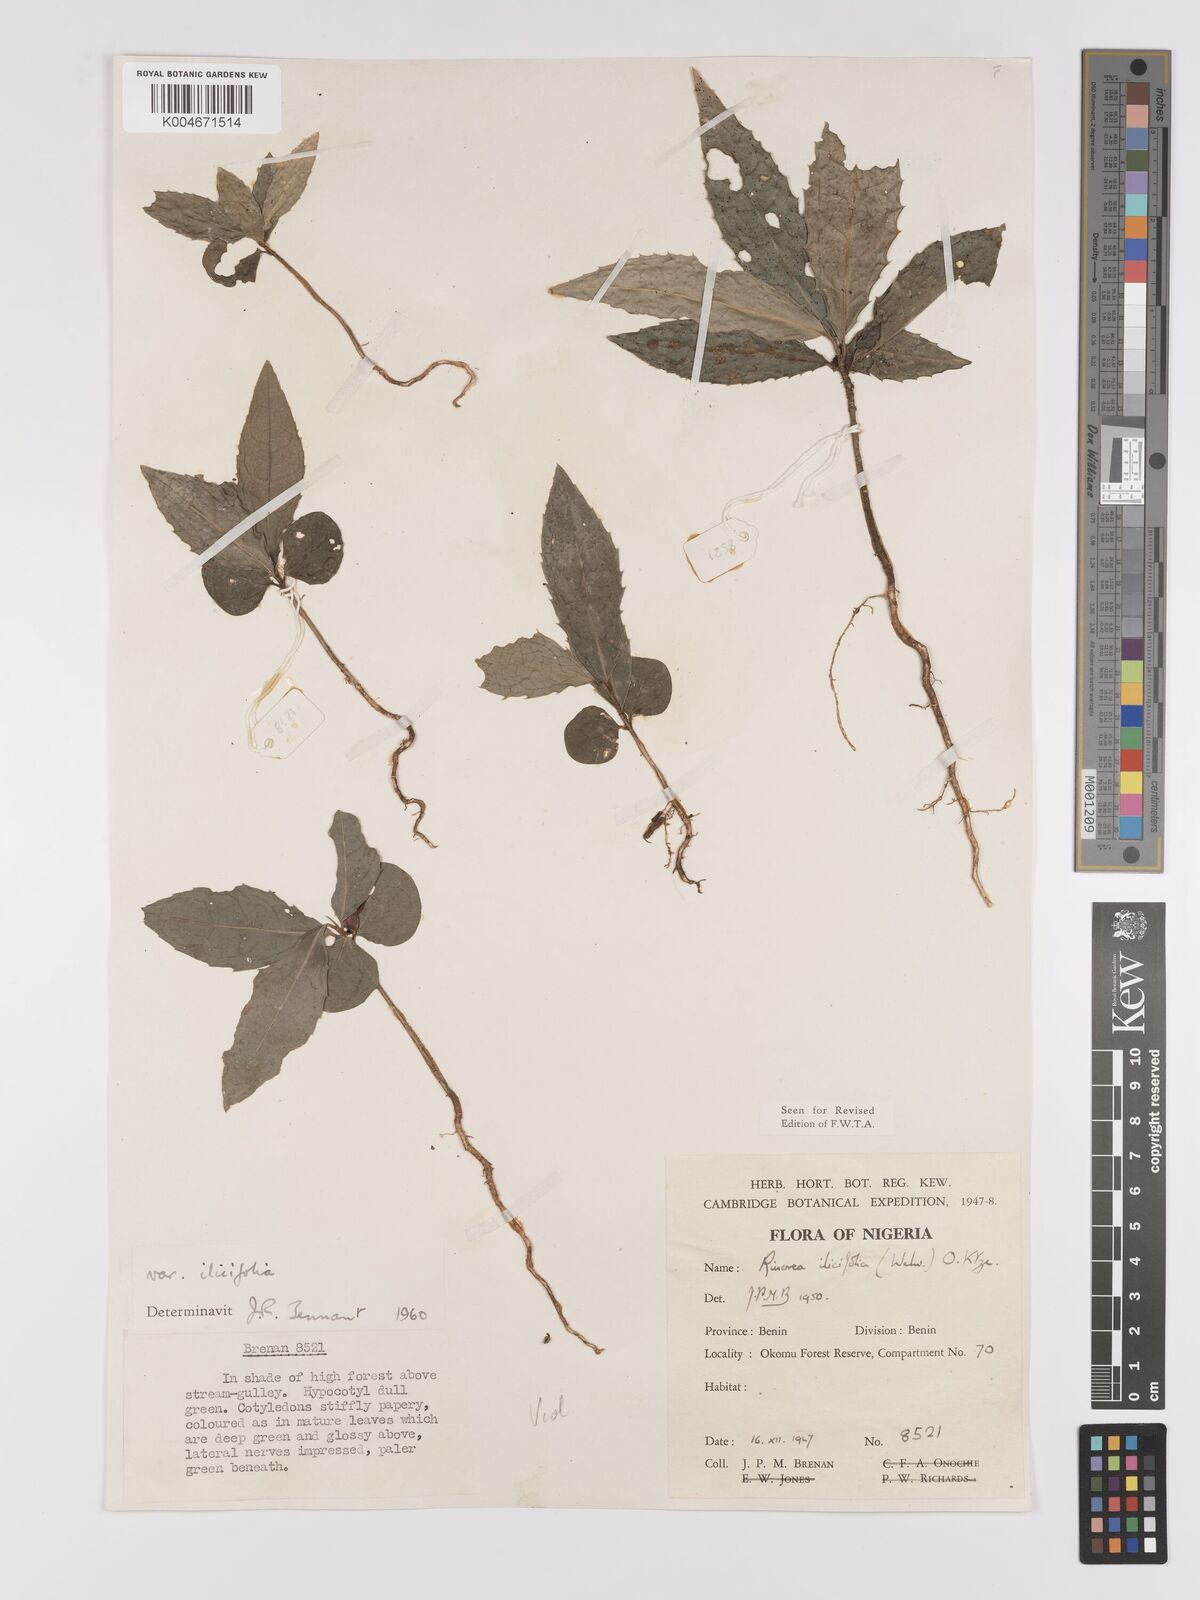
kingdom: Plantae
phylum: Tracheophyta
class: Magnoliopsida
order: Malpighiales
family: Violaceae
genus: Rinorea
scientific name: Rinorea ilicifolia
